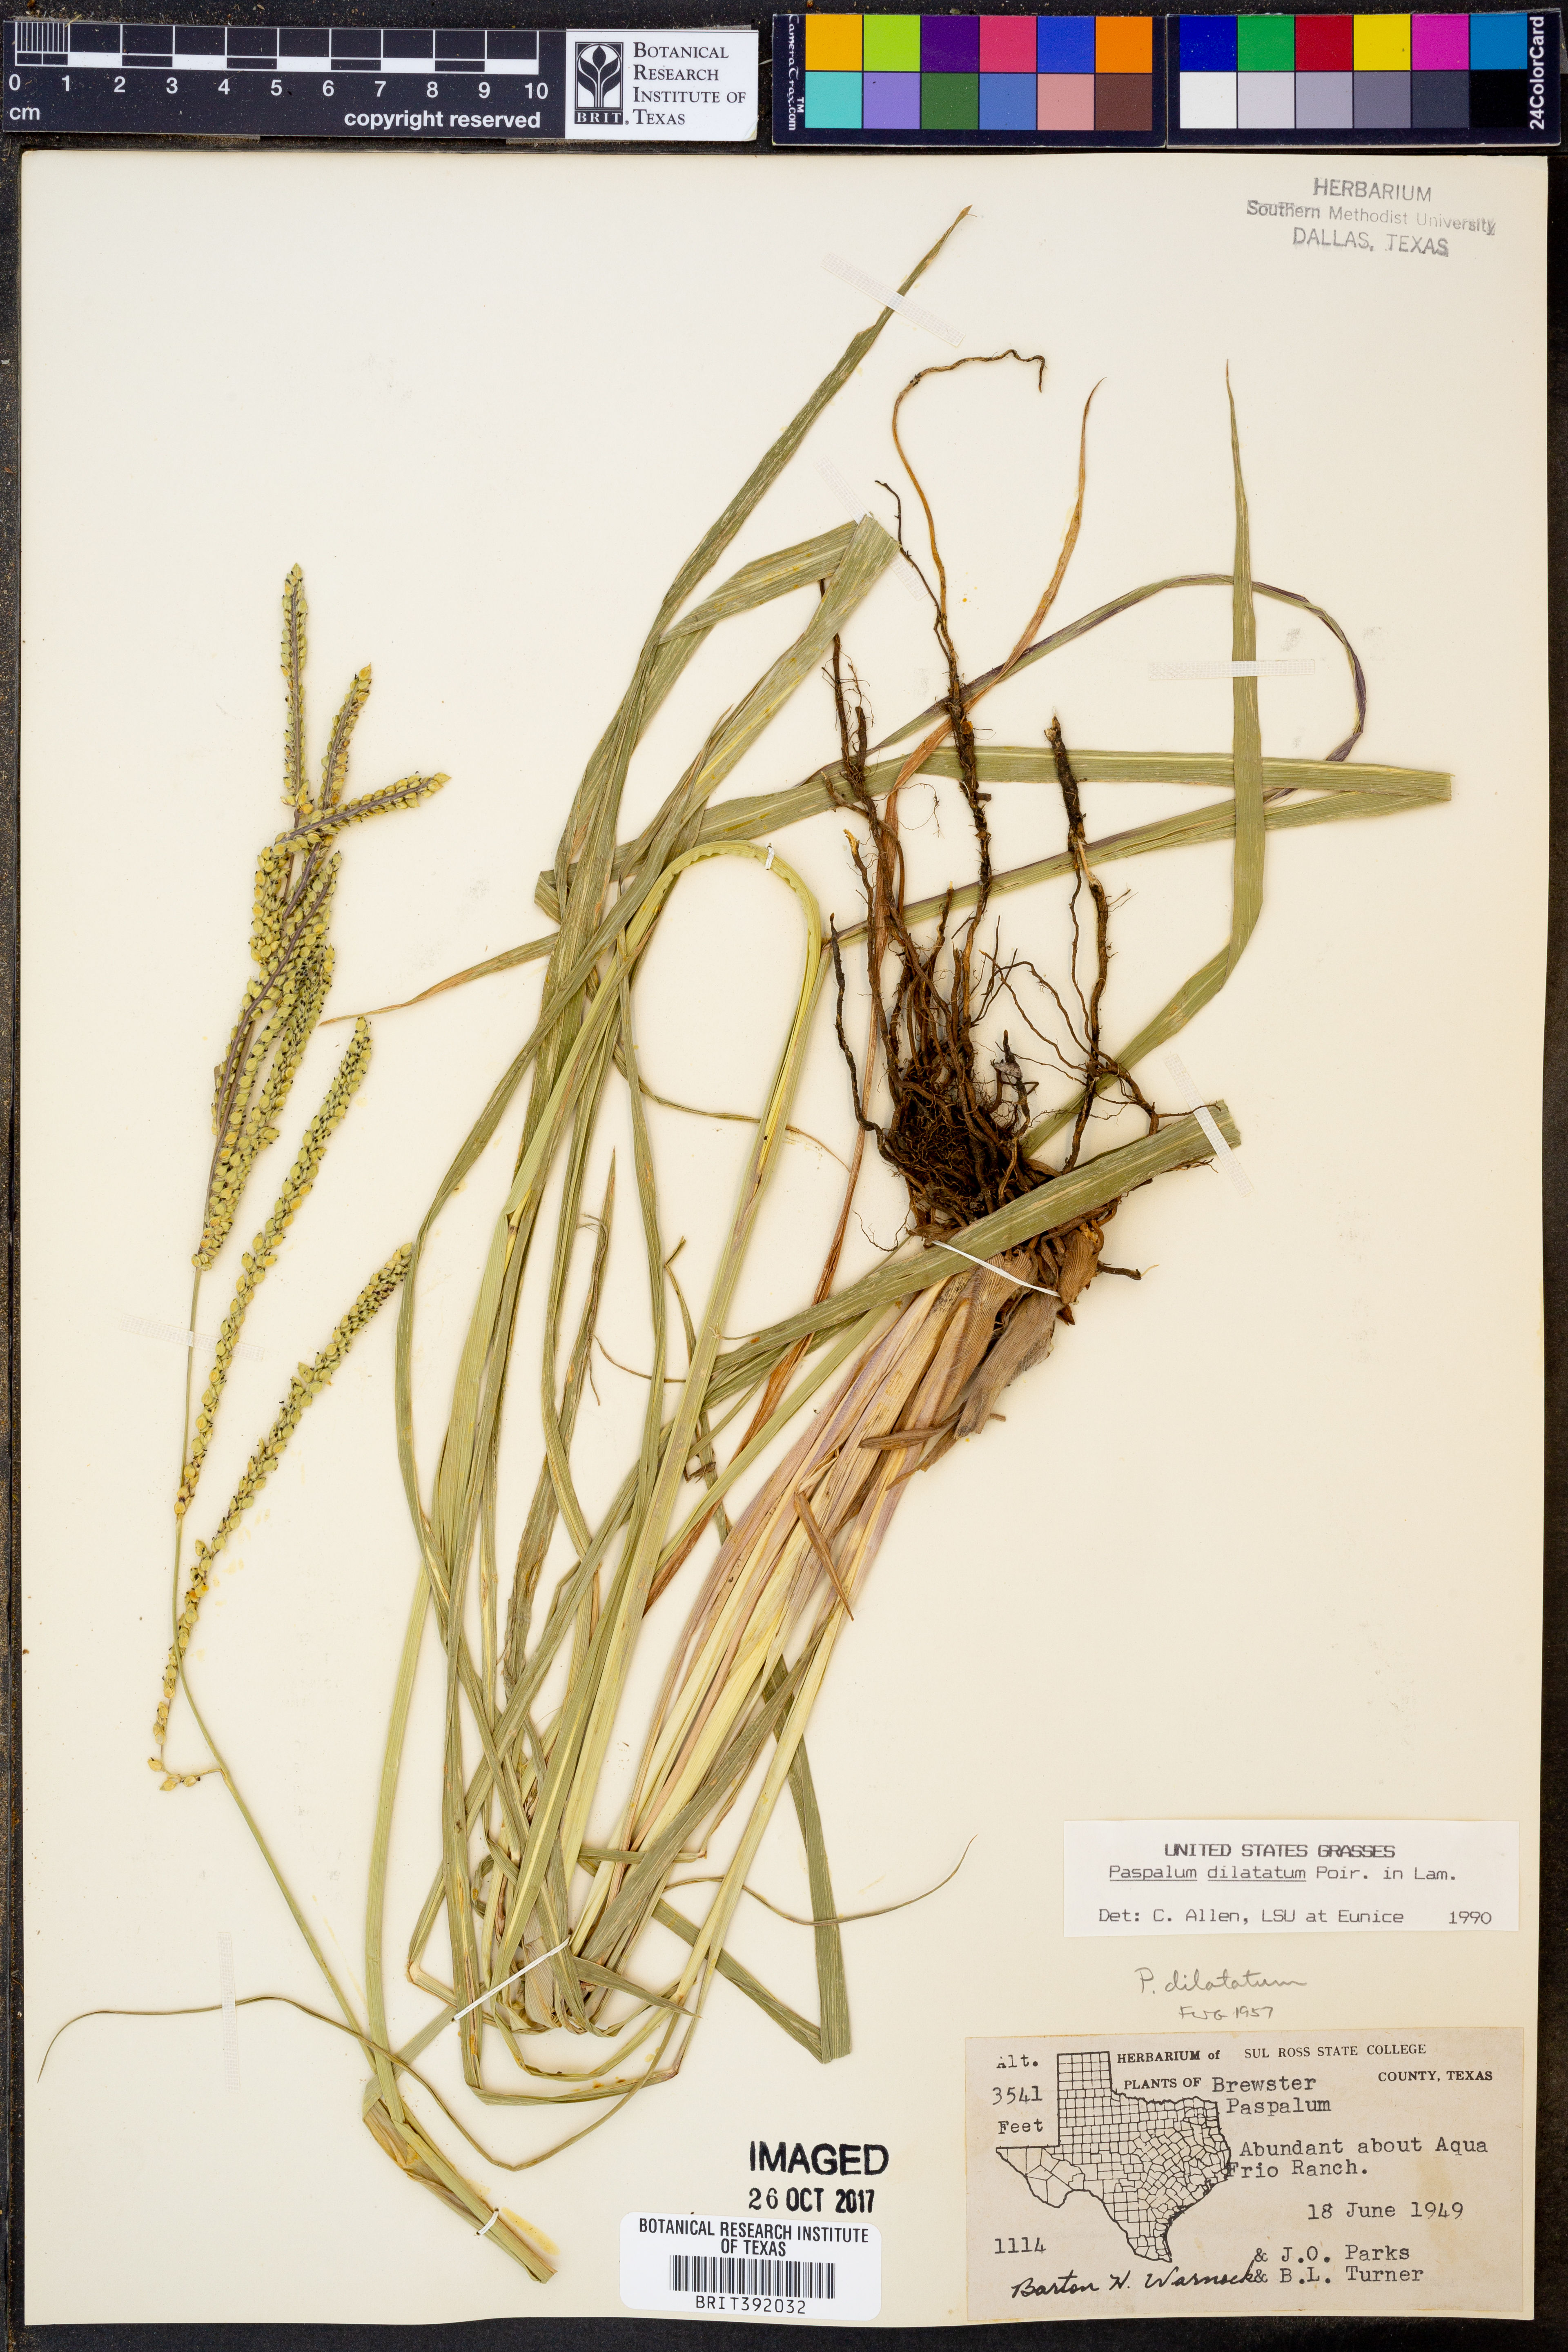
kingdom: Plantae
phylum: Tracheophyta
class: Liliopsida
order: Poales
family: Poaceae
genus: Paspalum
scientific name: Paspalum dilatatum
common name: Dallisgrass
